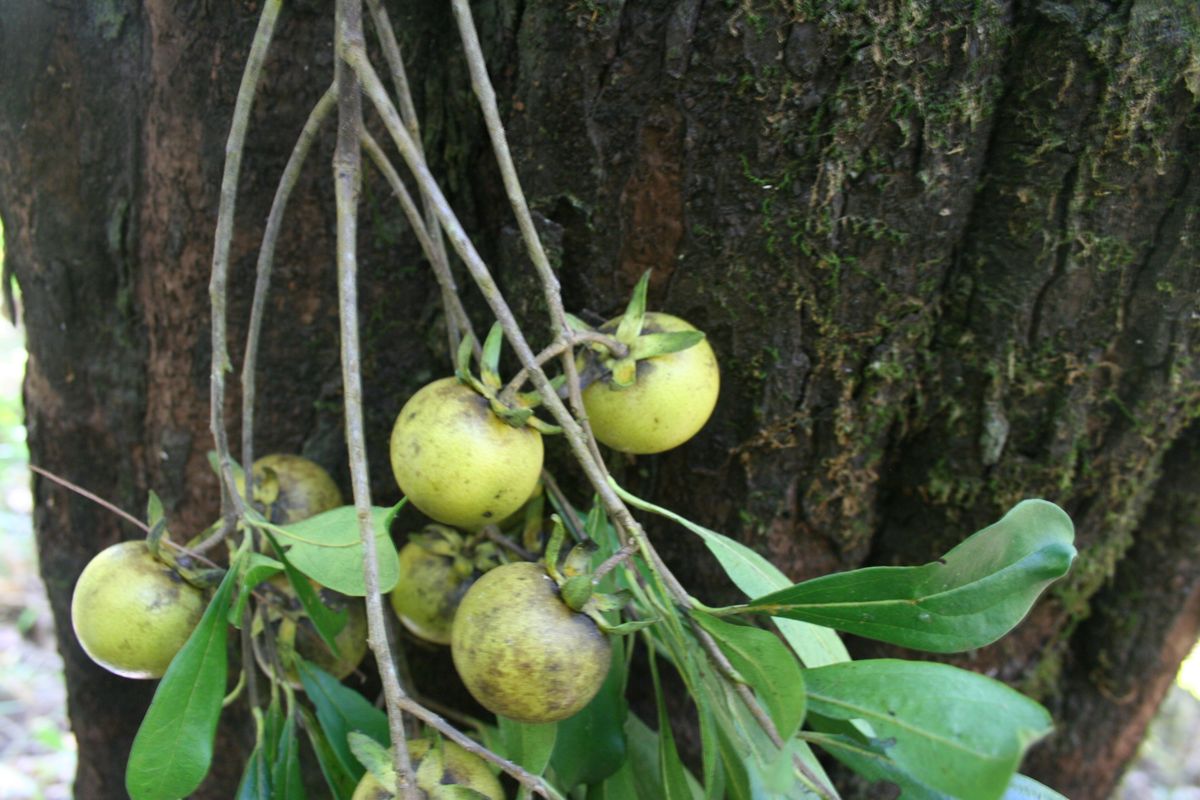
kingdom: Plantae
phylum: Tracheophyta
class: Magnoliopsida
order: Ericales
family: Ebenaceae
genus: Diospyros
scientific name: Diospyros johnstoniana
